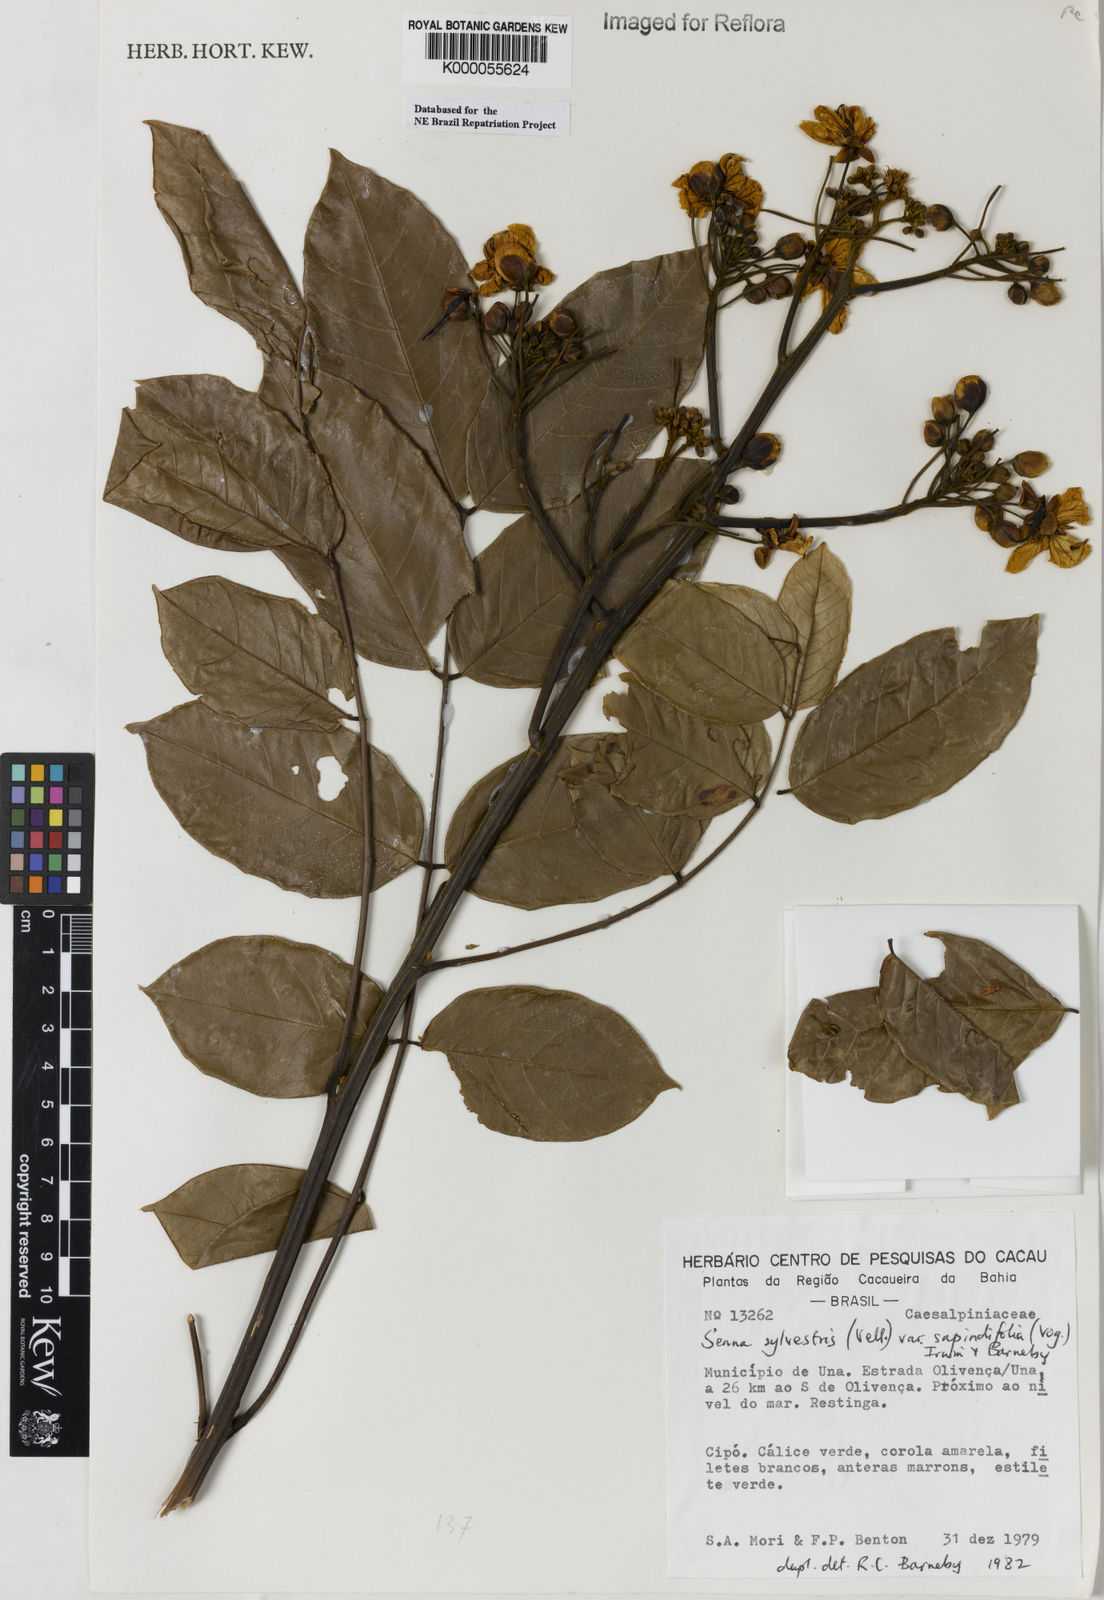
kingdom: Plantae
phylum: Tracheophyta
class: Magnoliopsida
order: Fabales
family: Fabaceae
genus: Senna
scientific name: Senna silvestris
